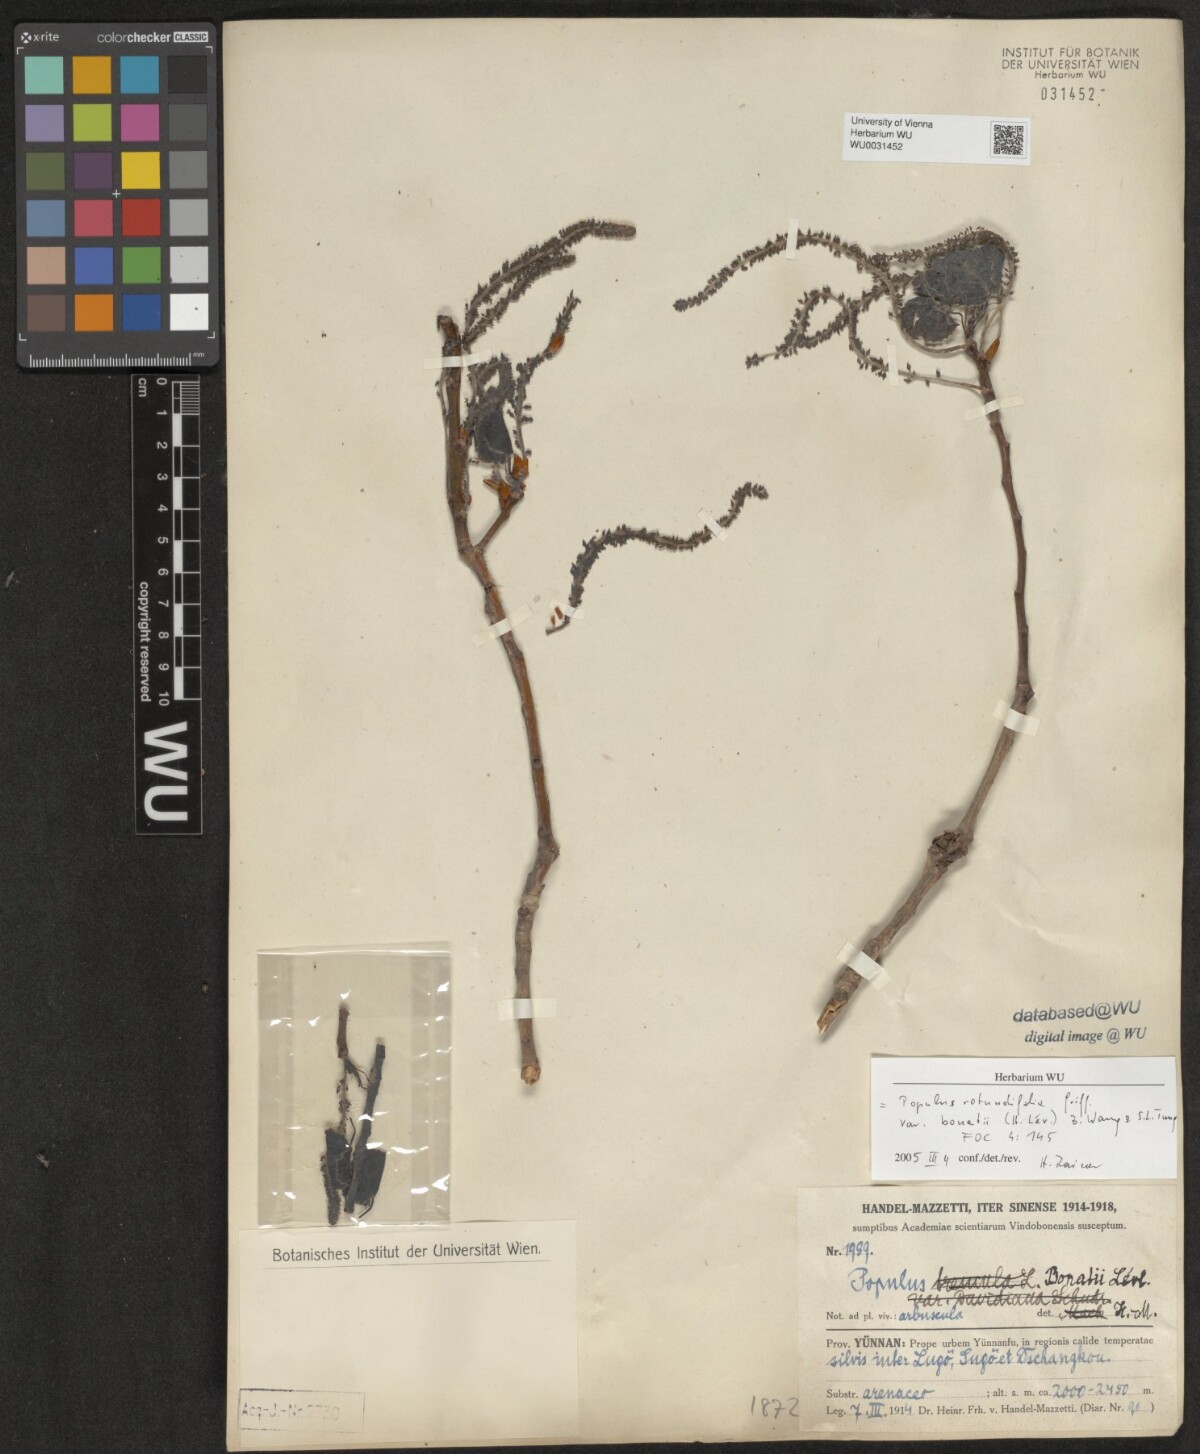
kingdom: Plantae
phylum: Tracheophyta
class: Magnoliopsida
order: Malpighiales
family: Salicaceae
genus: Populus
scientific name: Populus rotundifolia
